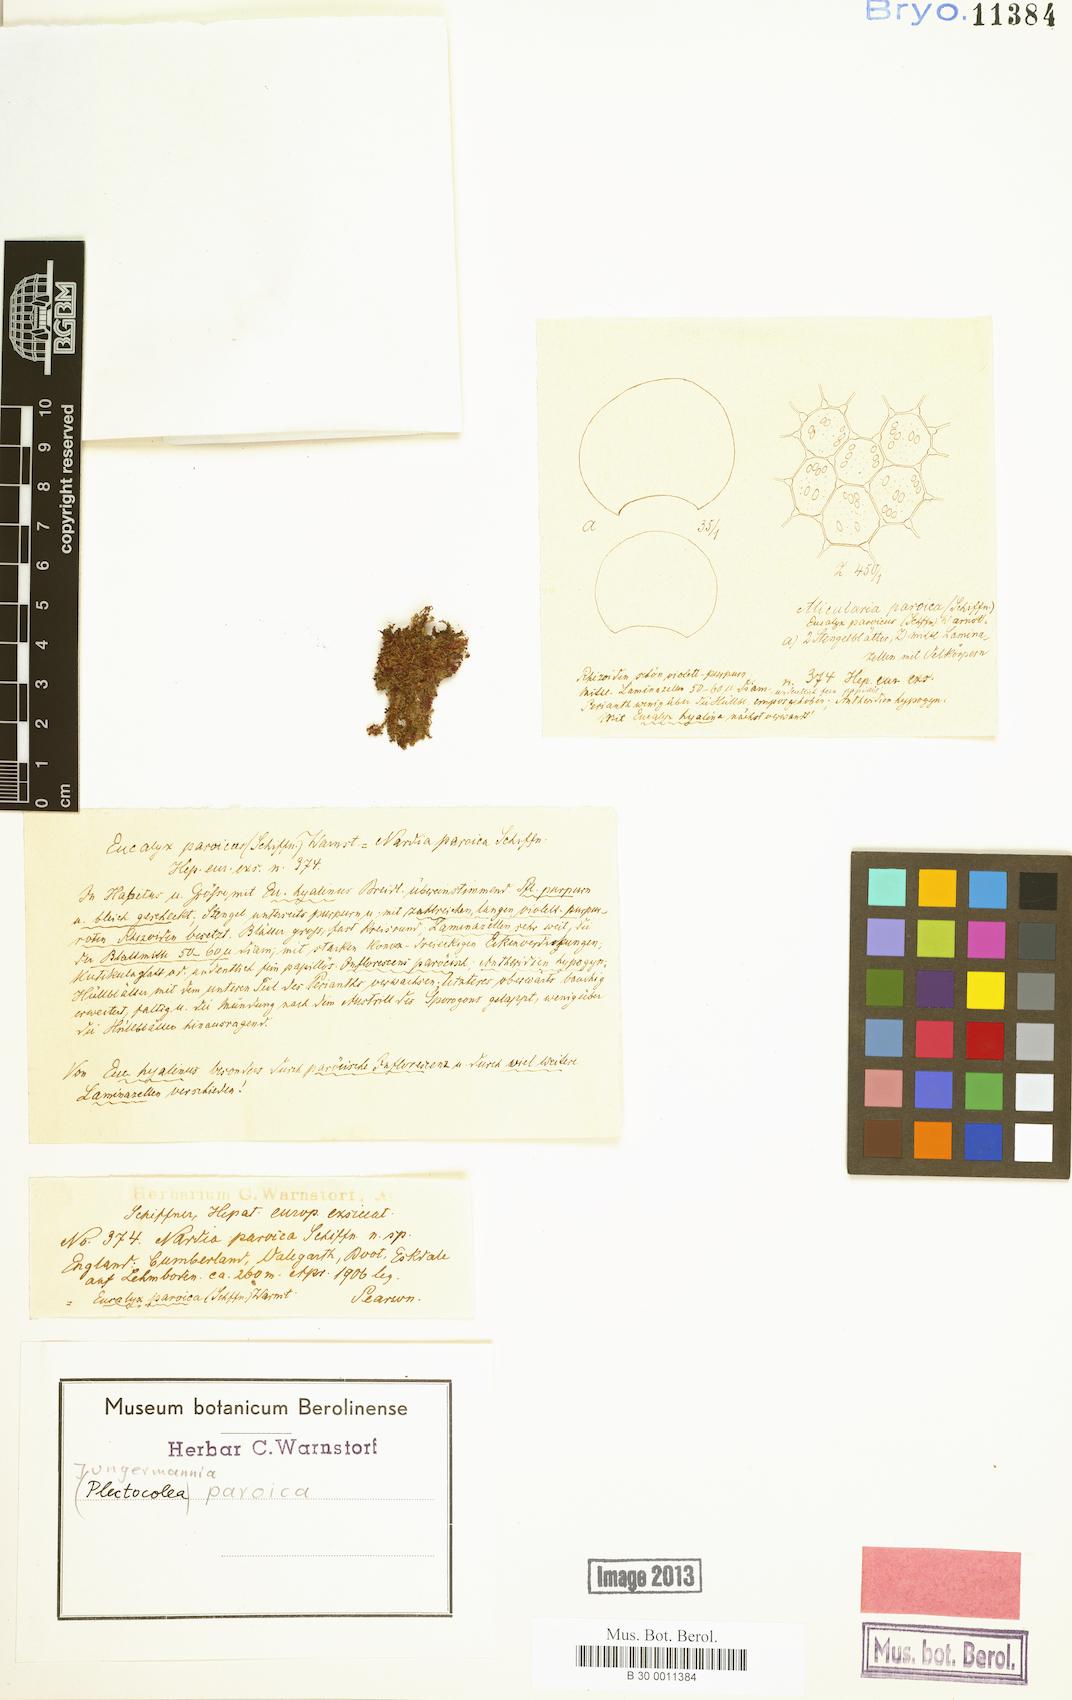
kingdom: Plantae
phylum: Marchantiophyta
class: Jungermanniopsida
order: Jungermanniales
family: Solenostomataceae
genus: Solenostoma
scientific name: Solenostoma paroicum
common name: Shining flapwort
